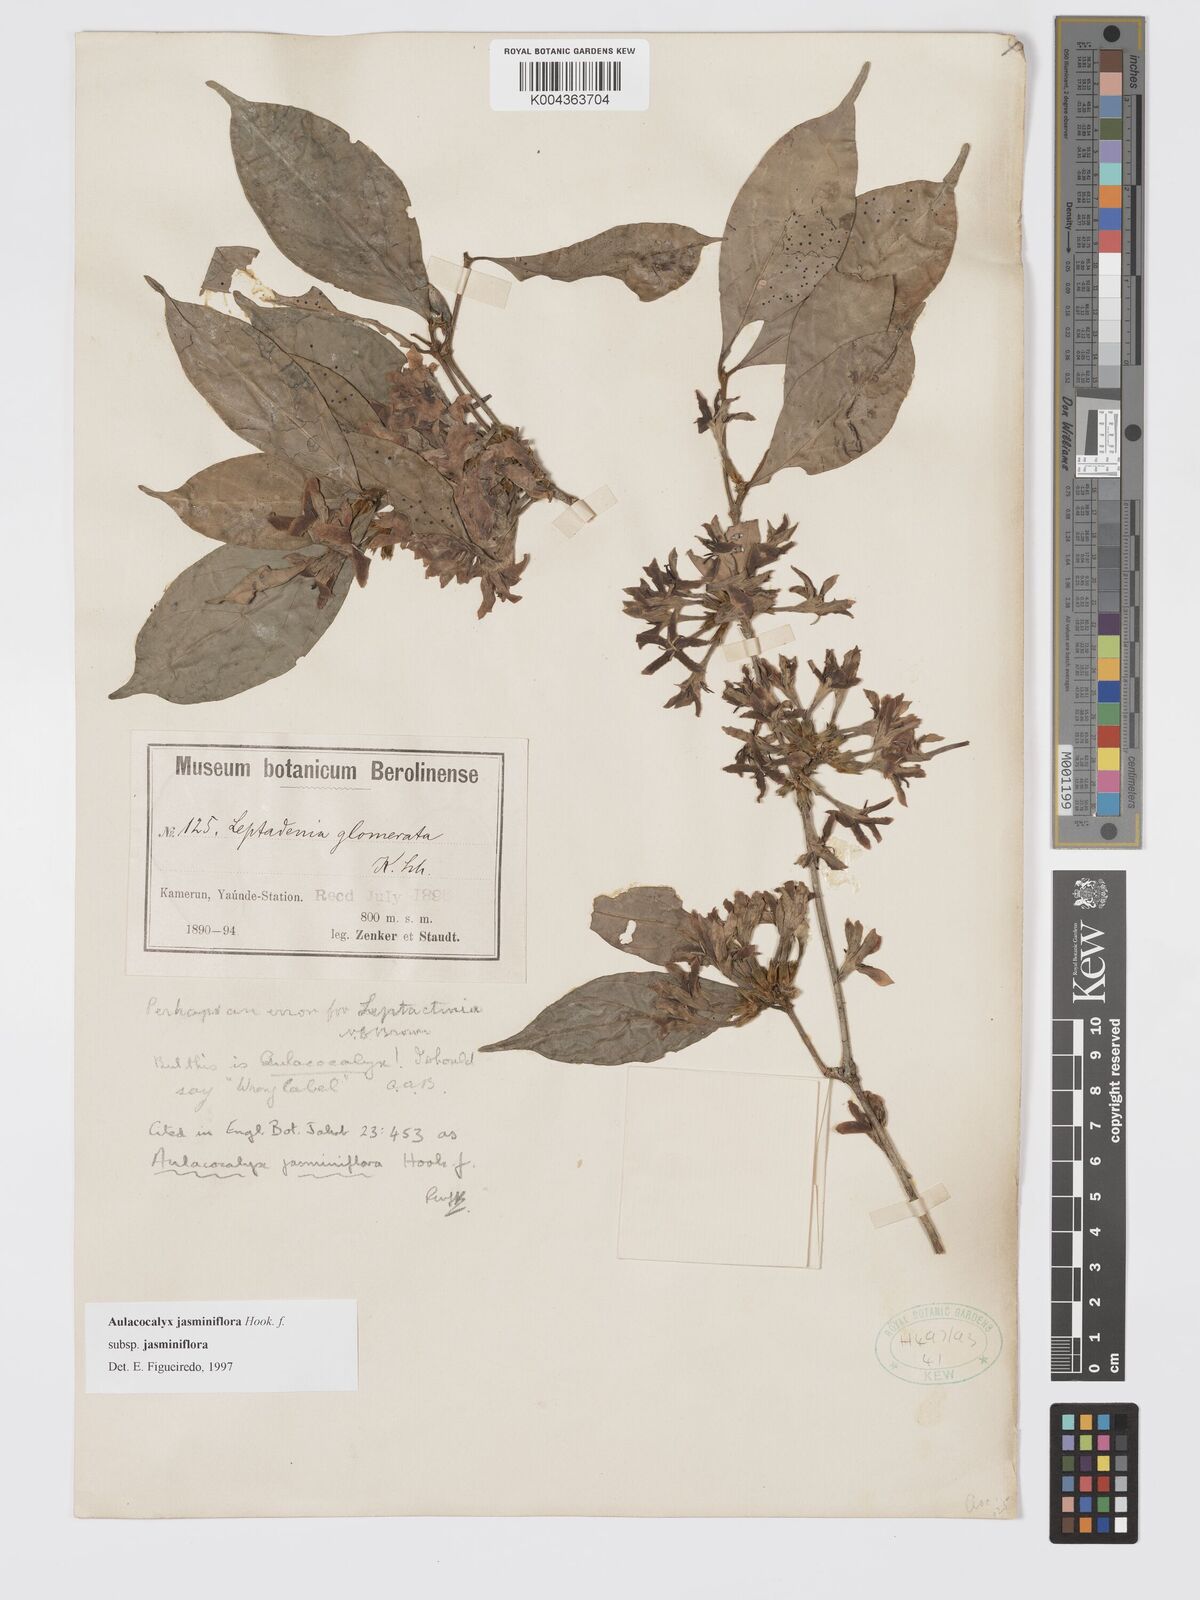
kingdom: Plantae
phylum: Tracheophyta
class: Magnoliopsida
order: Gentianales
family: Rubiaceae
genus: Aulacocalyx
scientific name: Aulacocalyx jasminiflora
